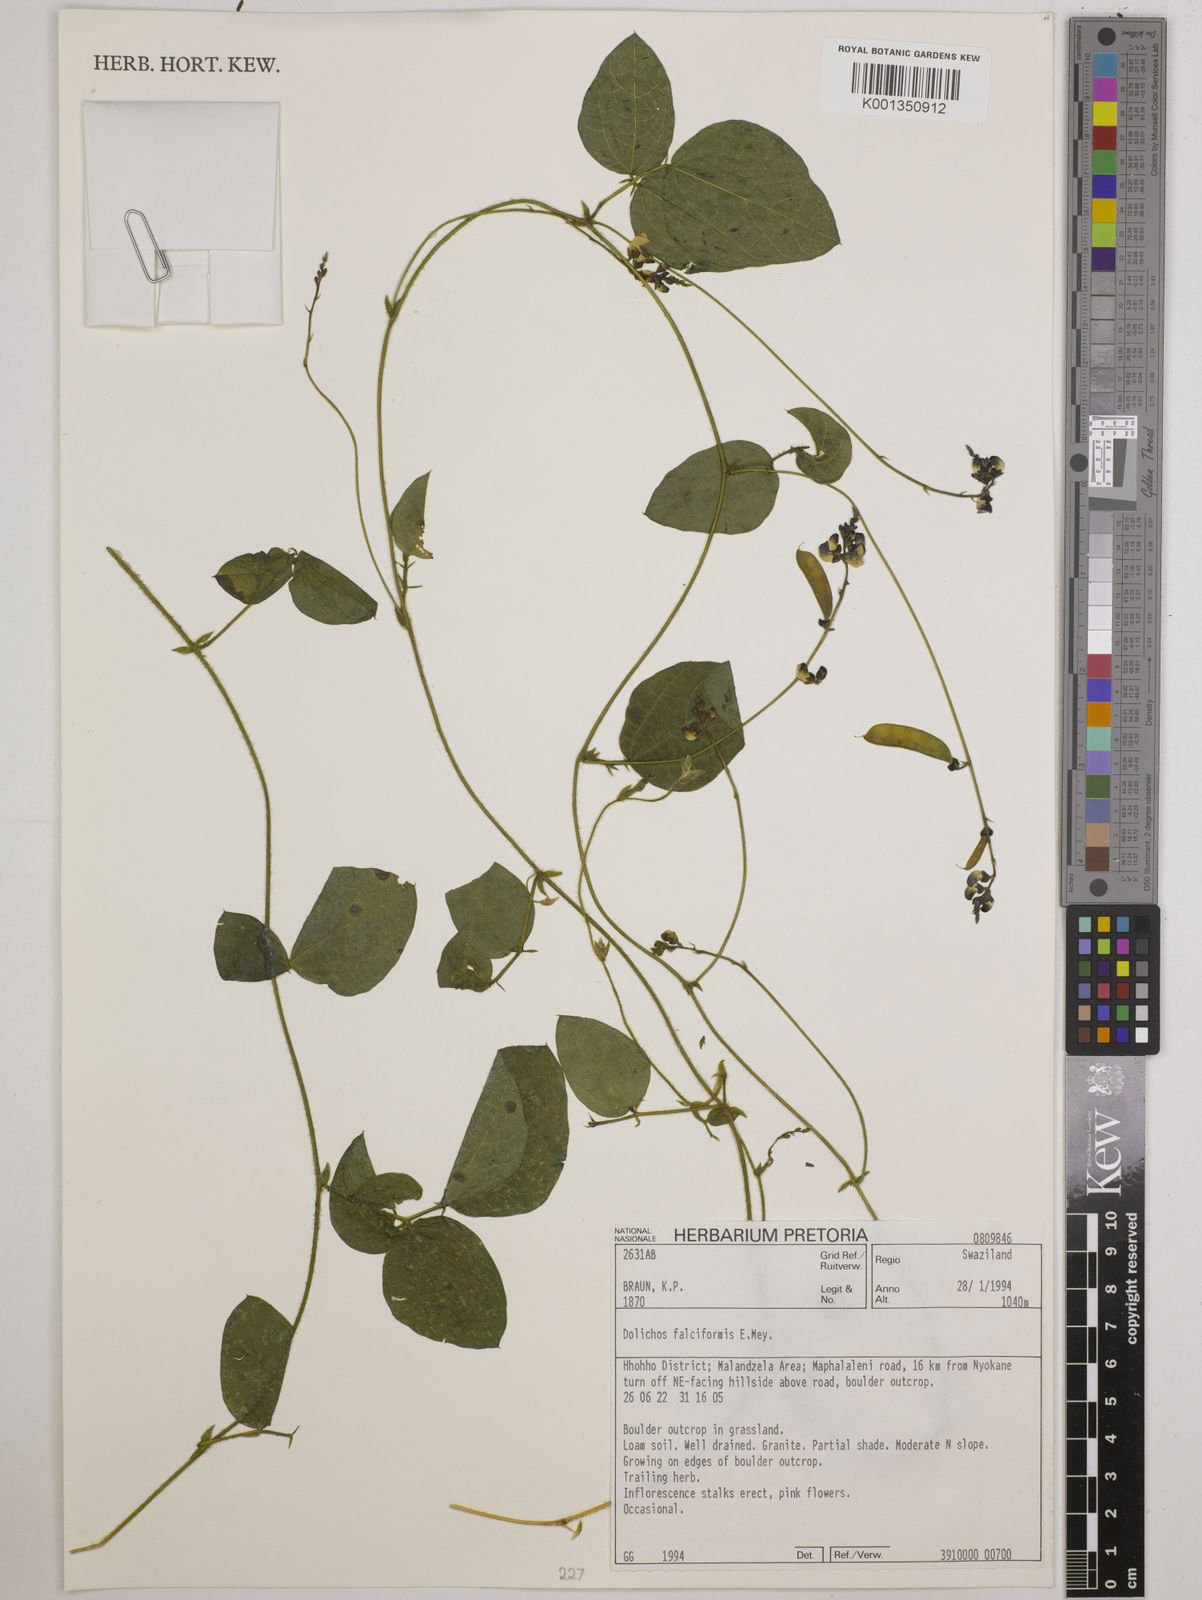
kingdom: Plantae
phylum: Tracheophyta
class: Magnoliopsida
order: Fabales
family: Fabaceae
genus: Dolichos
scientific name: Dolichos falciformis
